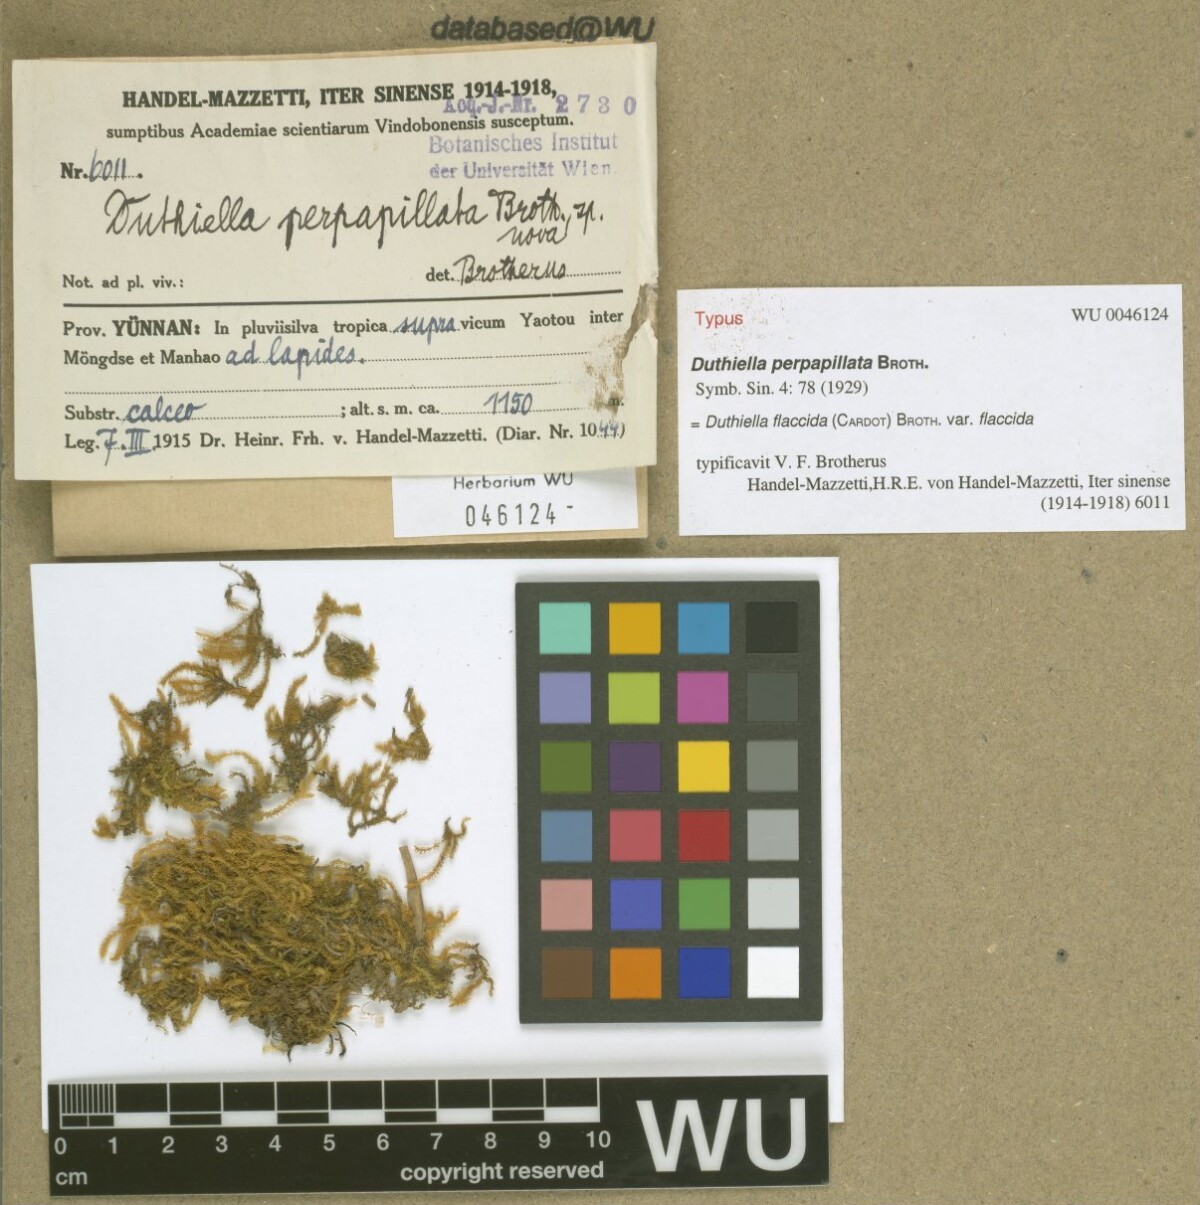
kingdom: Plantae
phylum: Bryophyta
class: Bryopsida
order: Hypnales
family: Meteoriaceae
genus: Duthiella
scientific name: Duthiella flaccida
